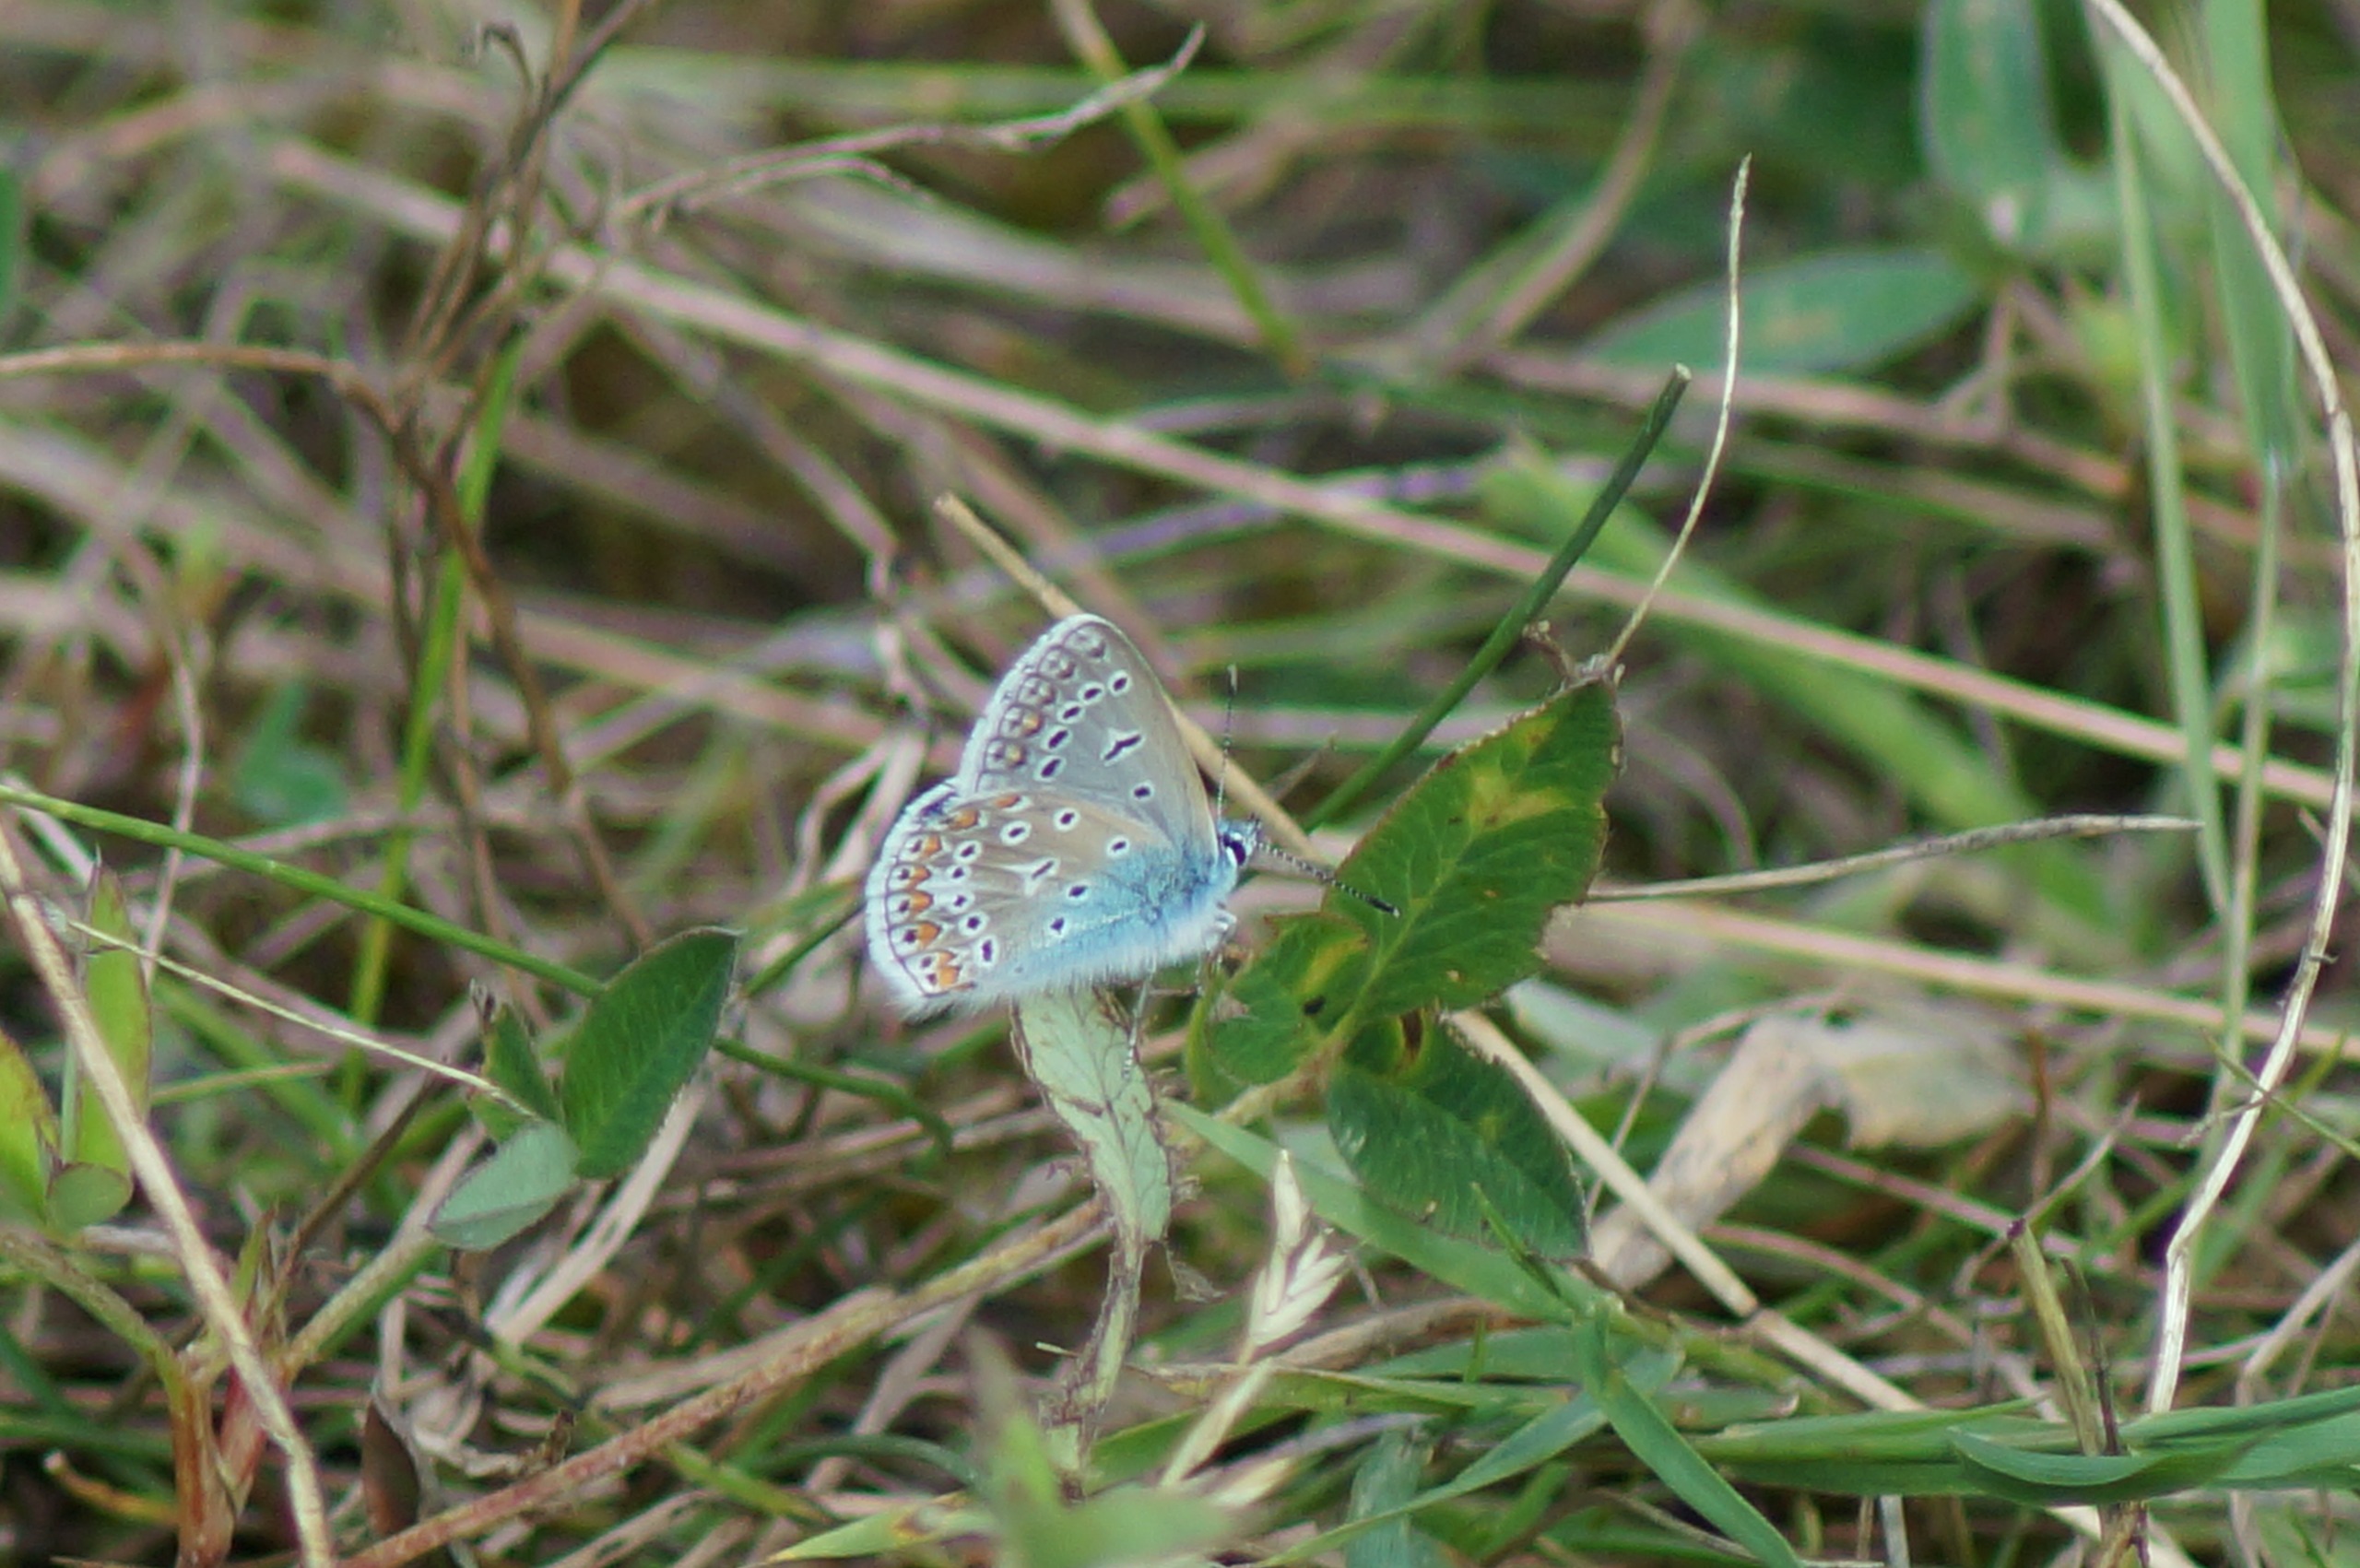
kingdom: Animalia
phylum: Arthropoda
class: Insecta
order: Lepidoptera
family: Lycaenidae
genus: Polyommatus
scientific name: Polyommatus icarus
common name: Almindelig blåfugl
